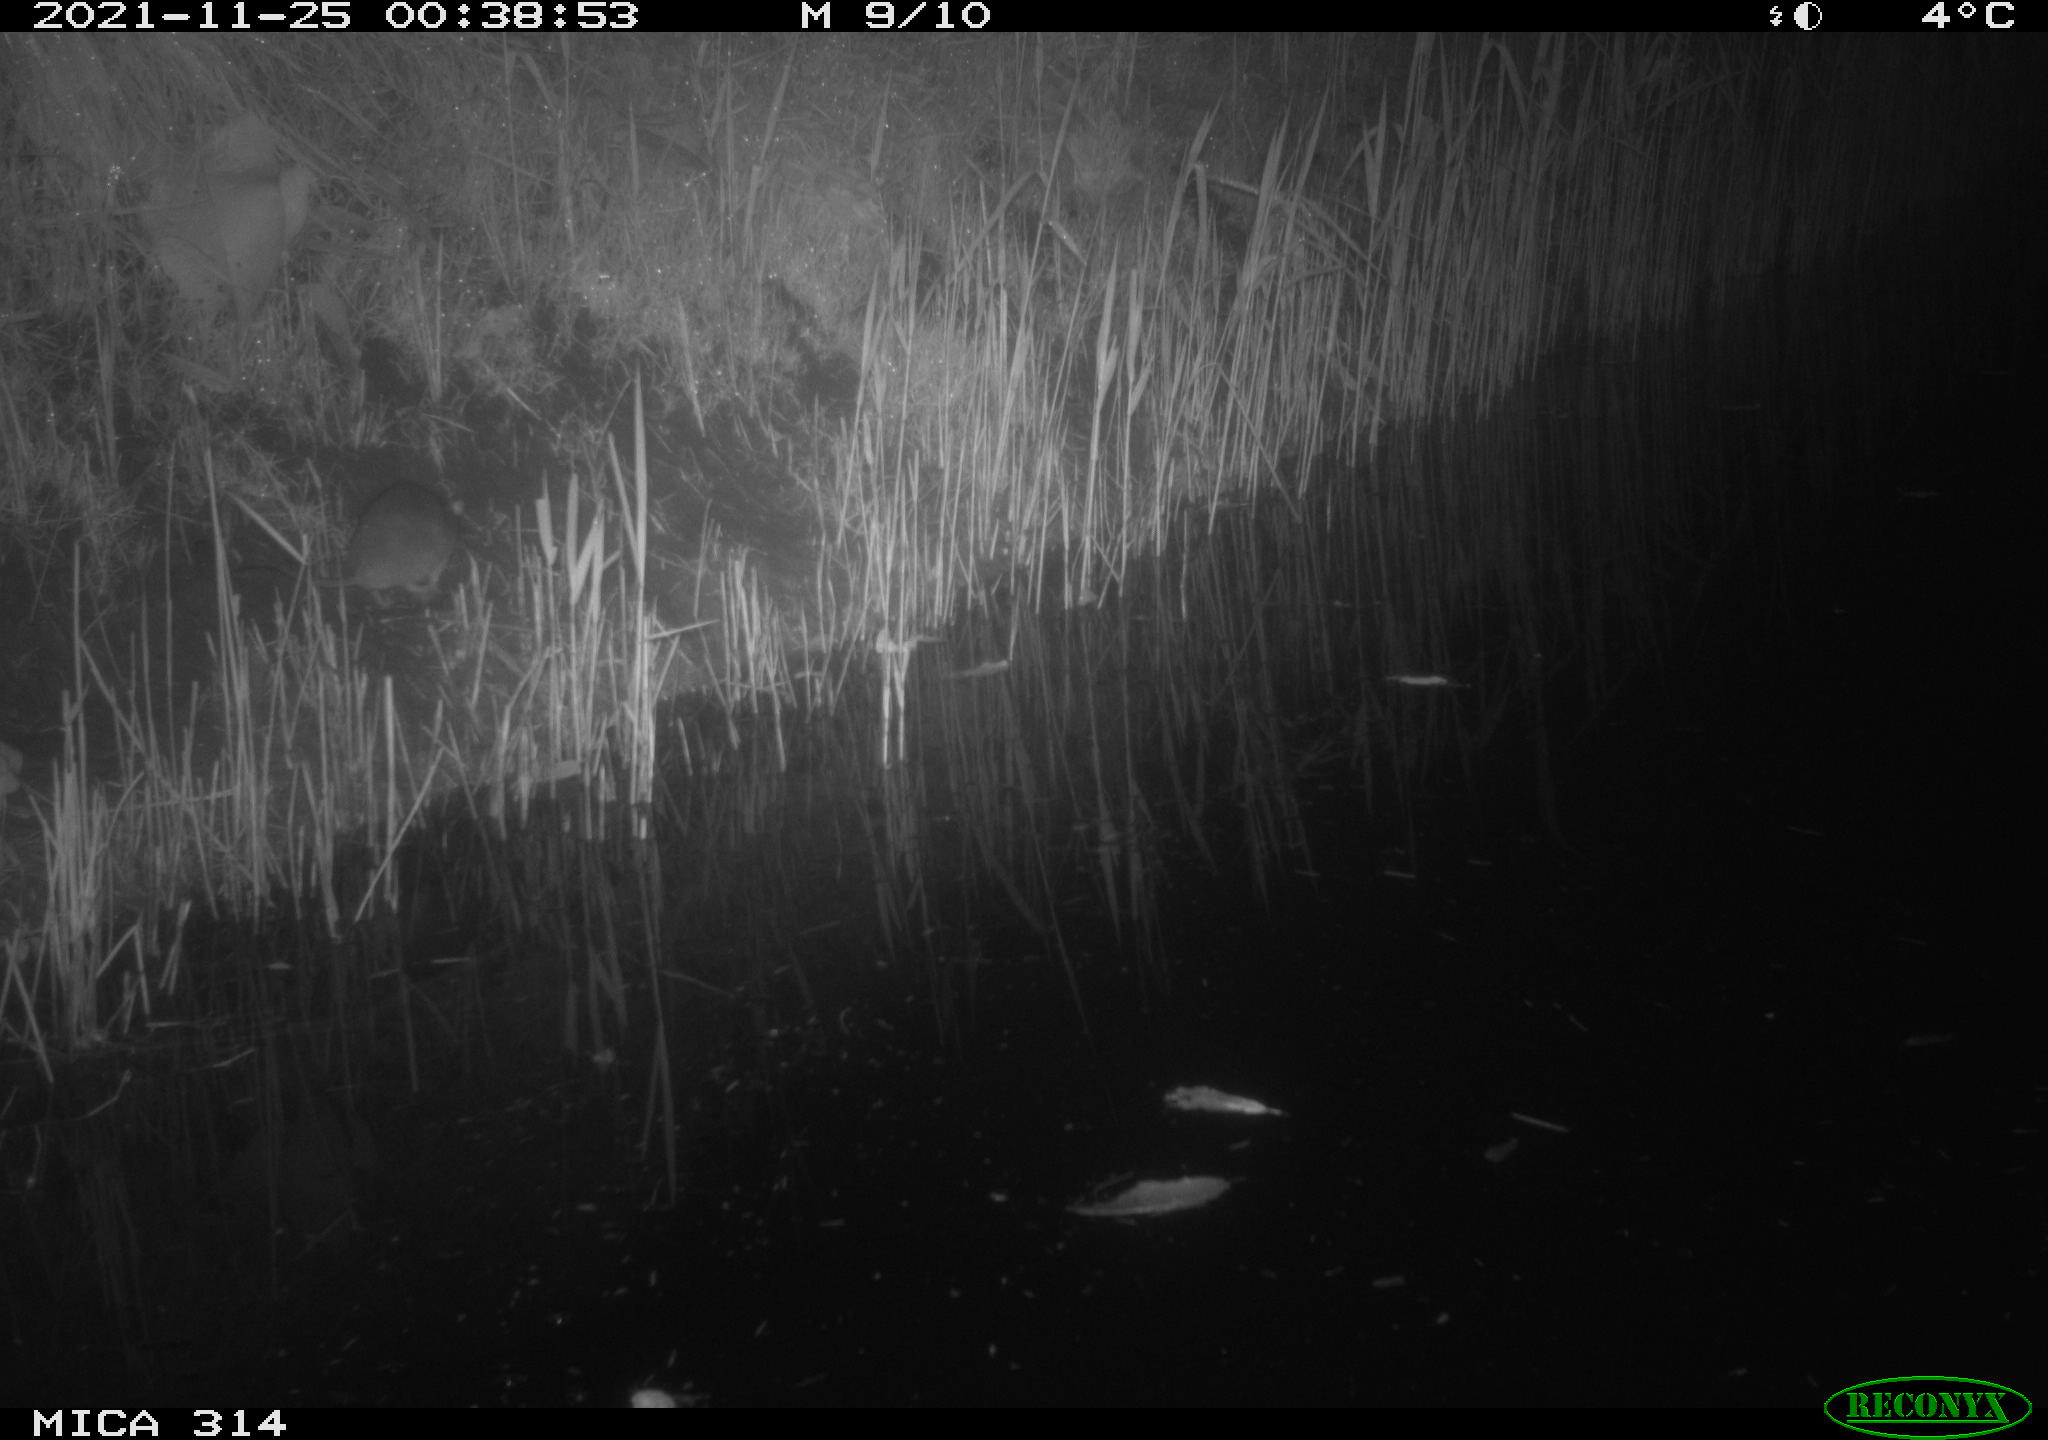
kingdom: Animalia
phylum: Chordata
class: Mammalia
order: Rodentia
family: Muridae
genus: Rattus
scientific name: Rattus norvegicus
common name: Brown rat
